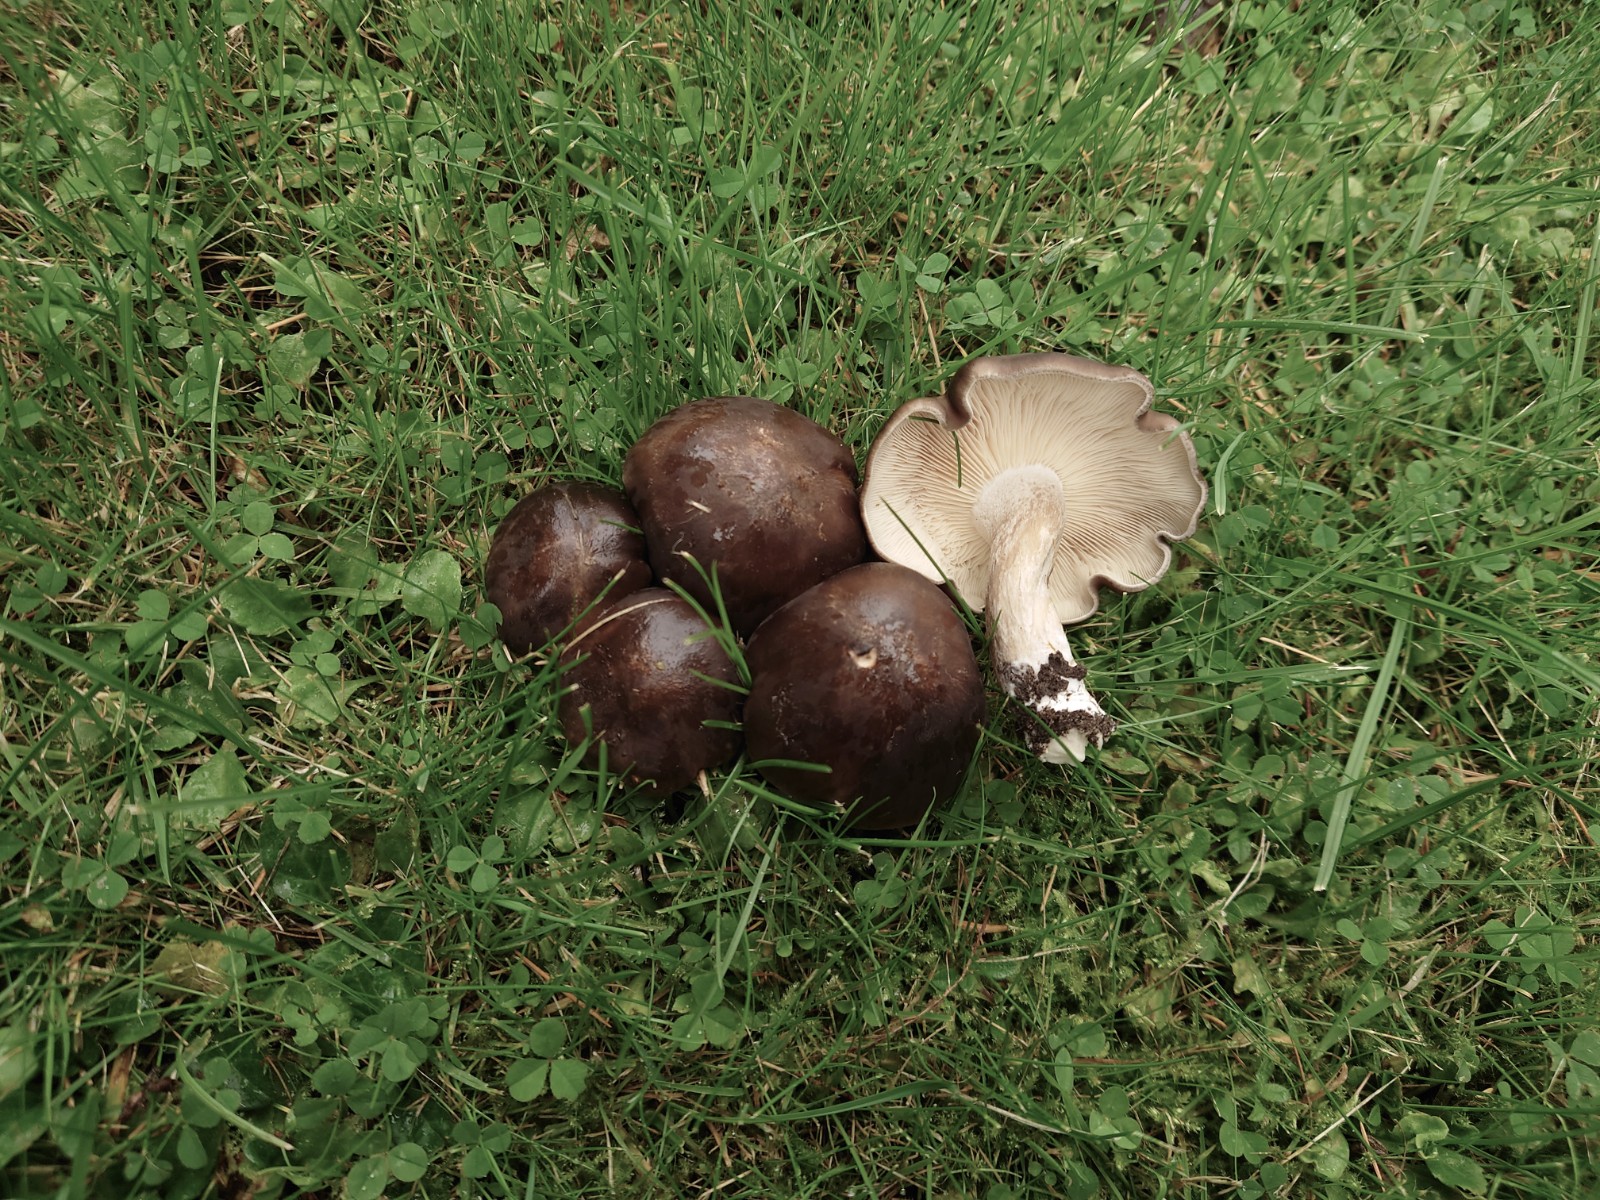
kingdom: Fungi
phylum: Basidiomycota
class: Agaricomycetes
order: Agaricales
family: Lyophyllaceae
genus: Lyophyllum
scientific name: Lyophyllum decastes
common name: Clustered domecap
